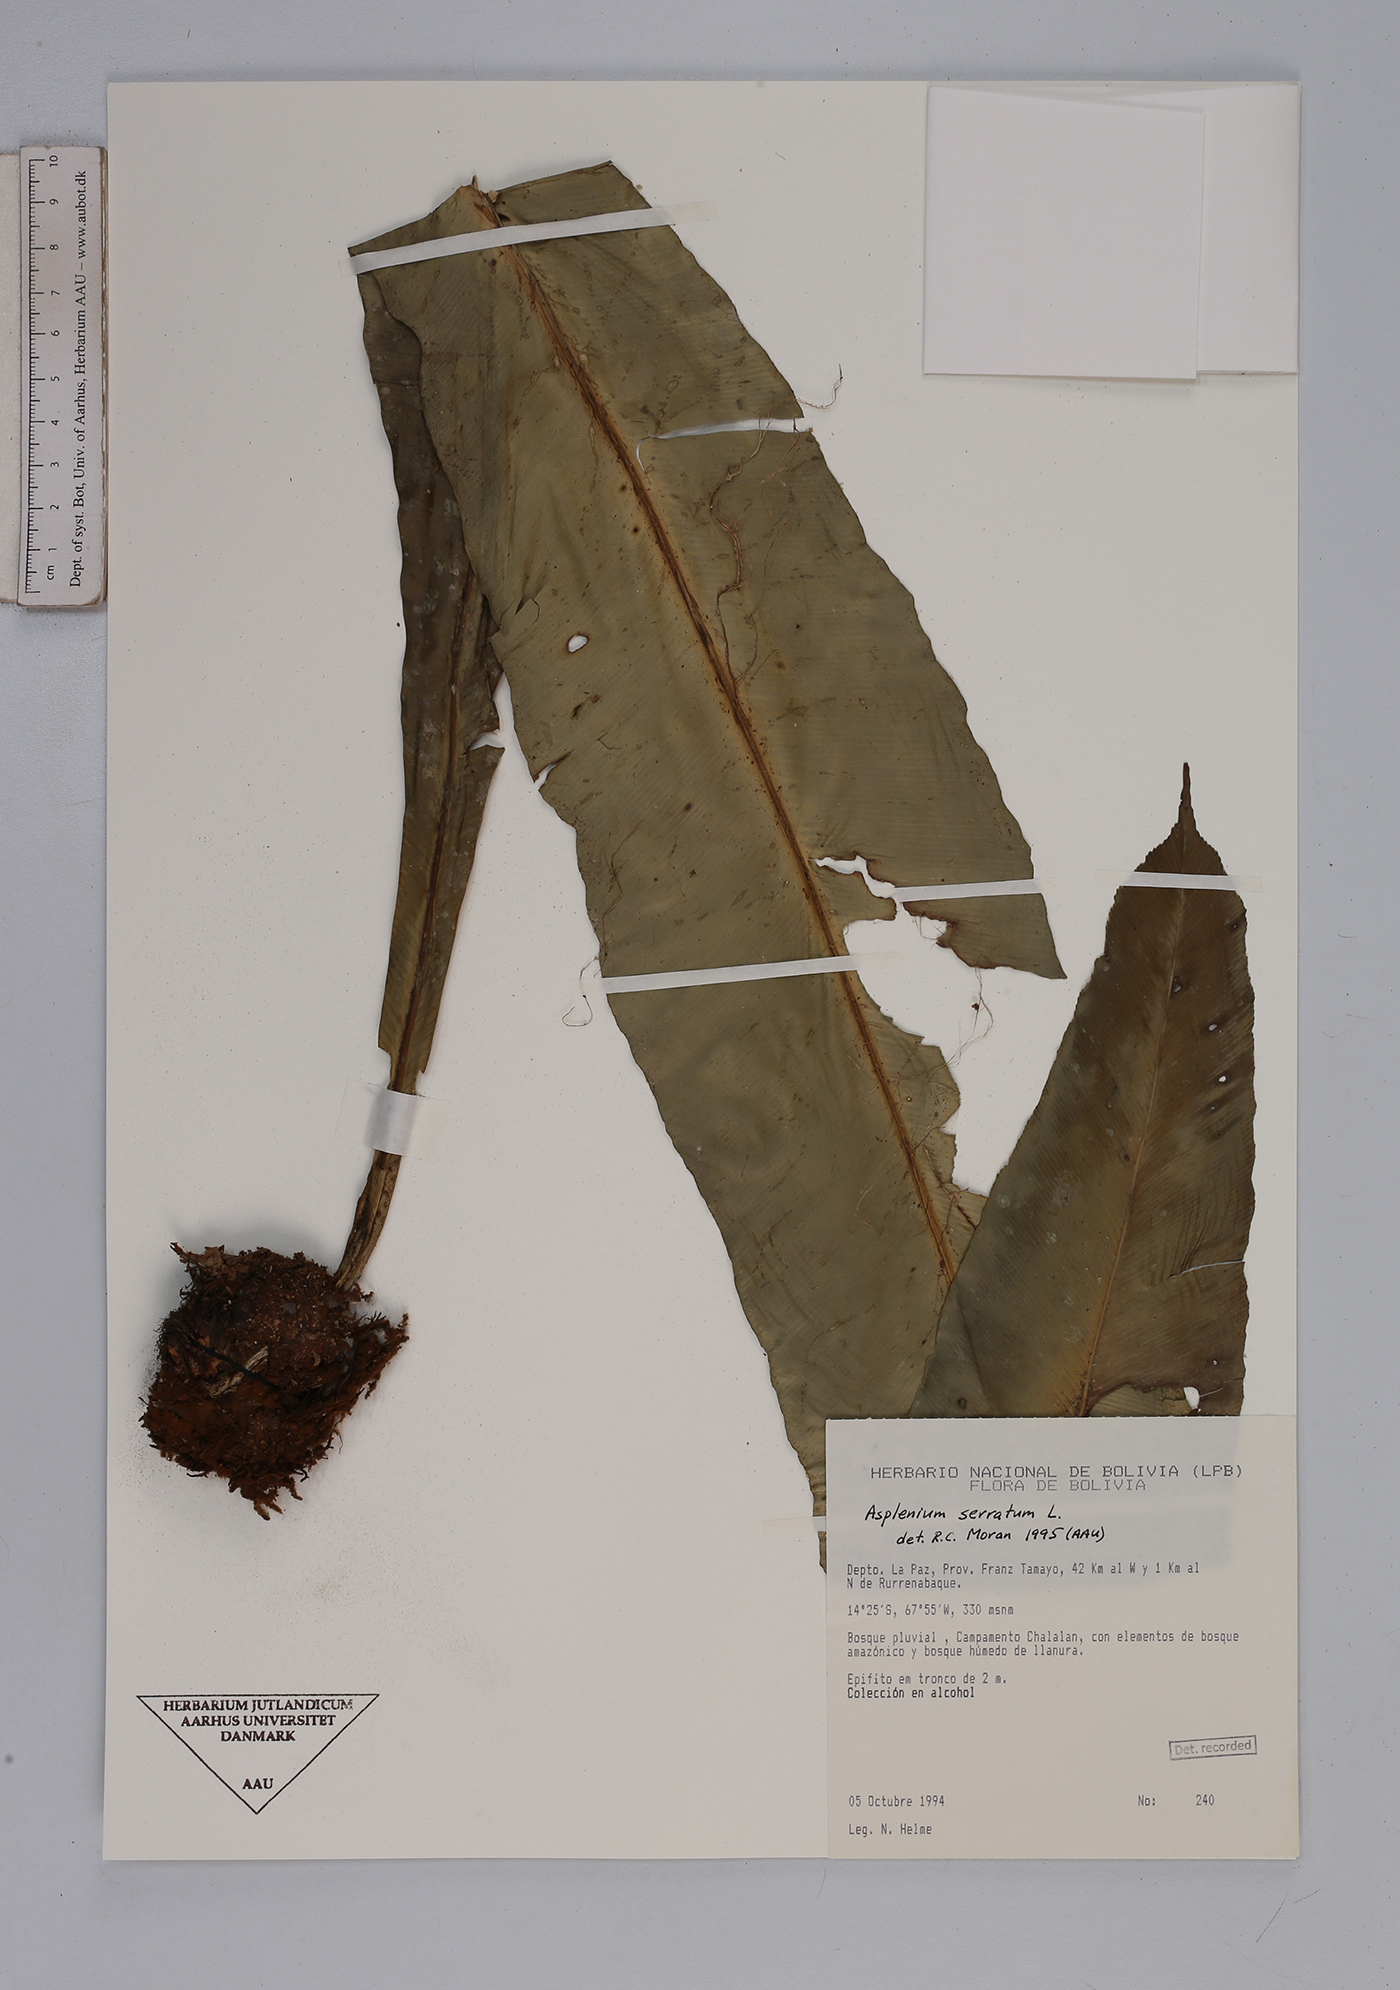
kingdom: Plantae
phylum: Tracheophyta
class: Polypodiopsida
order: Polypodiales
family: Aspleniaceae
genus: Asplenium
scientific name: Asplenium serratum
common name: Wild birdnest fern
